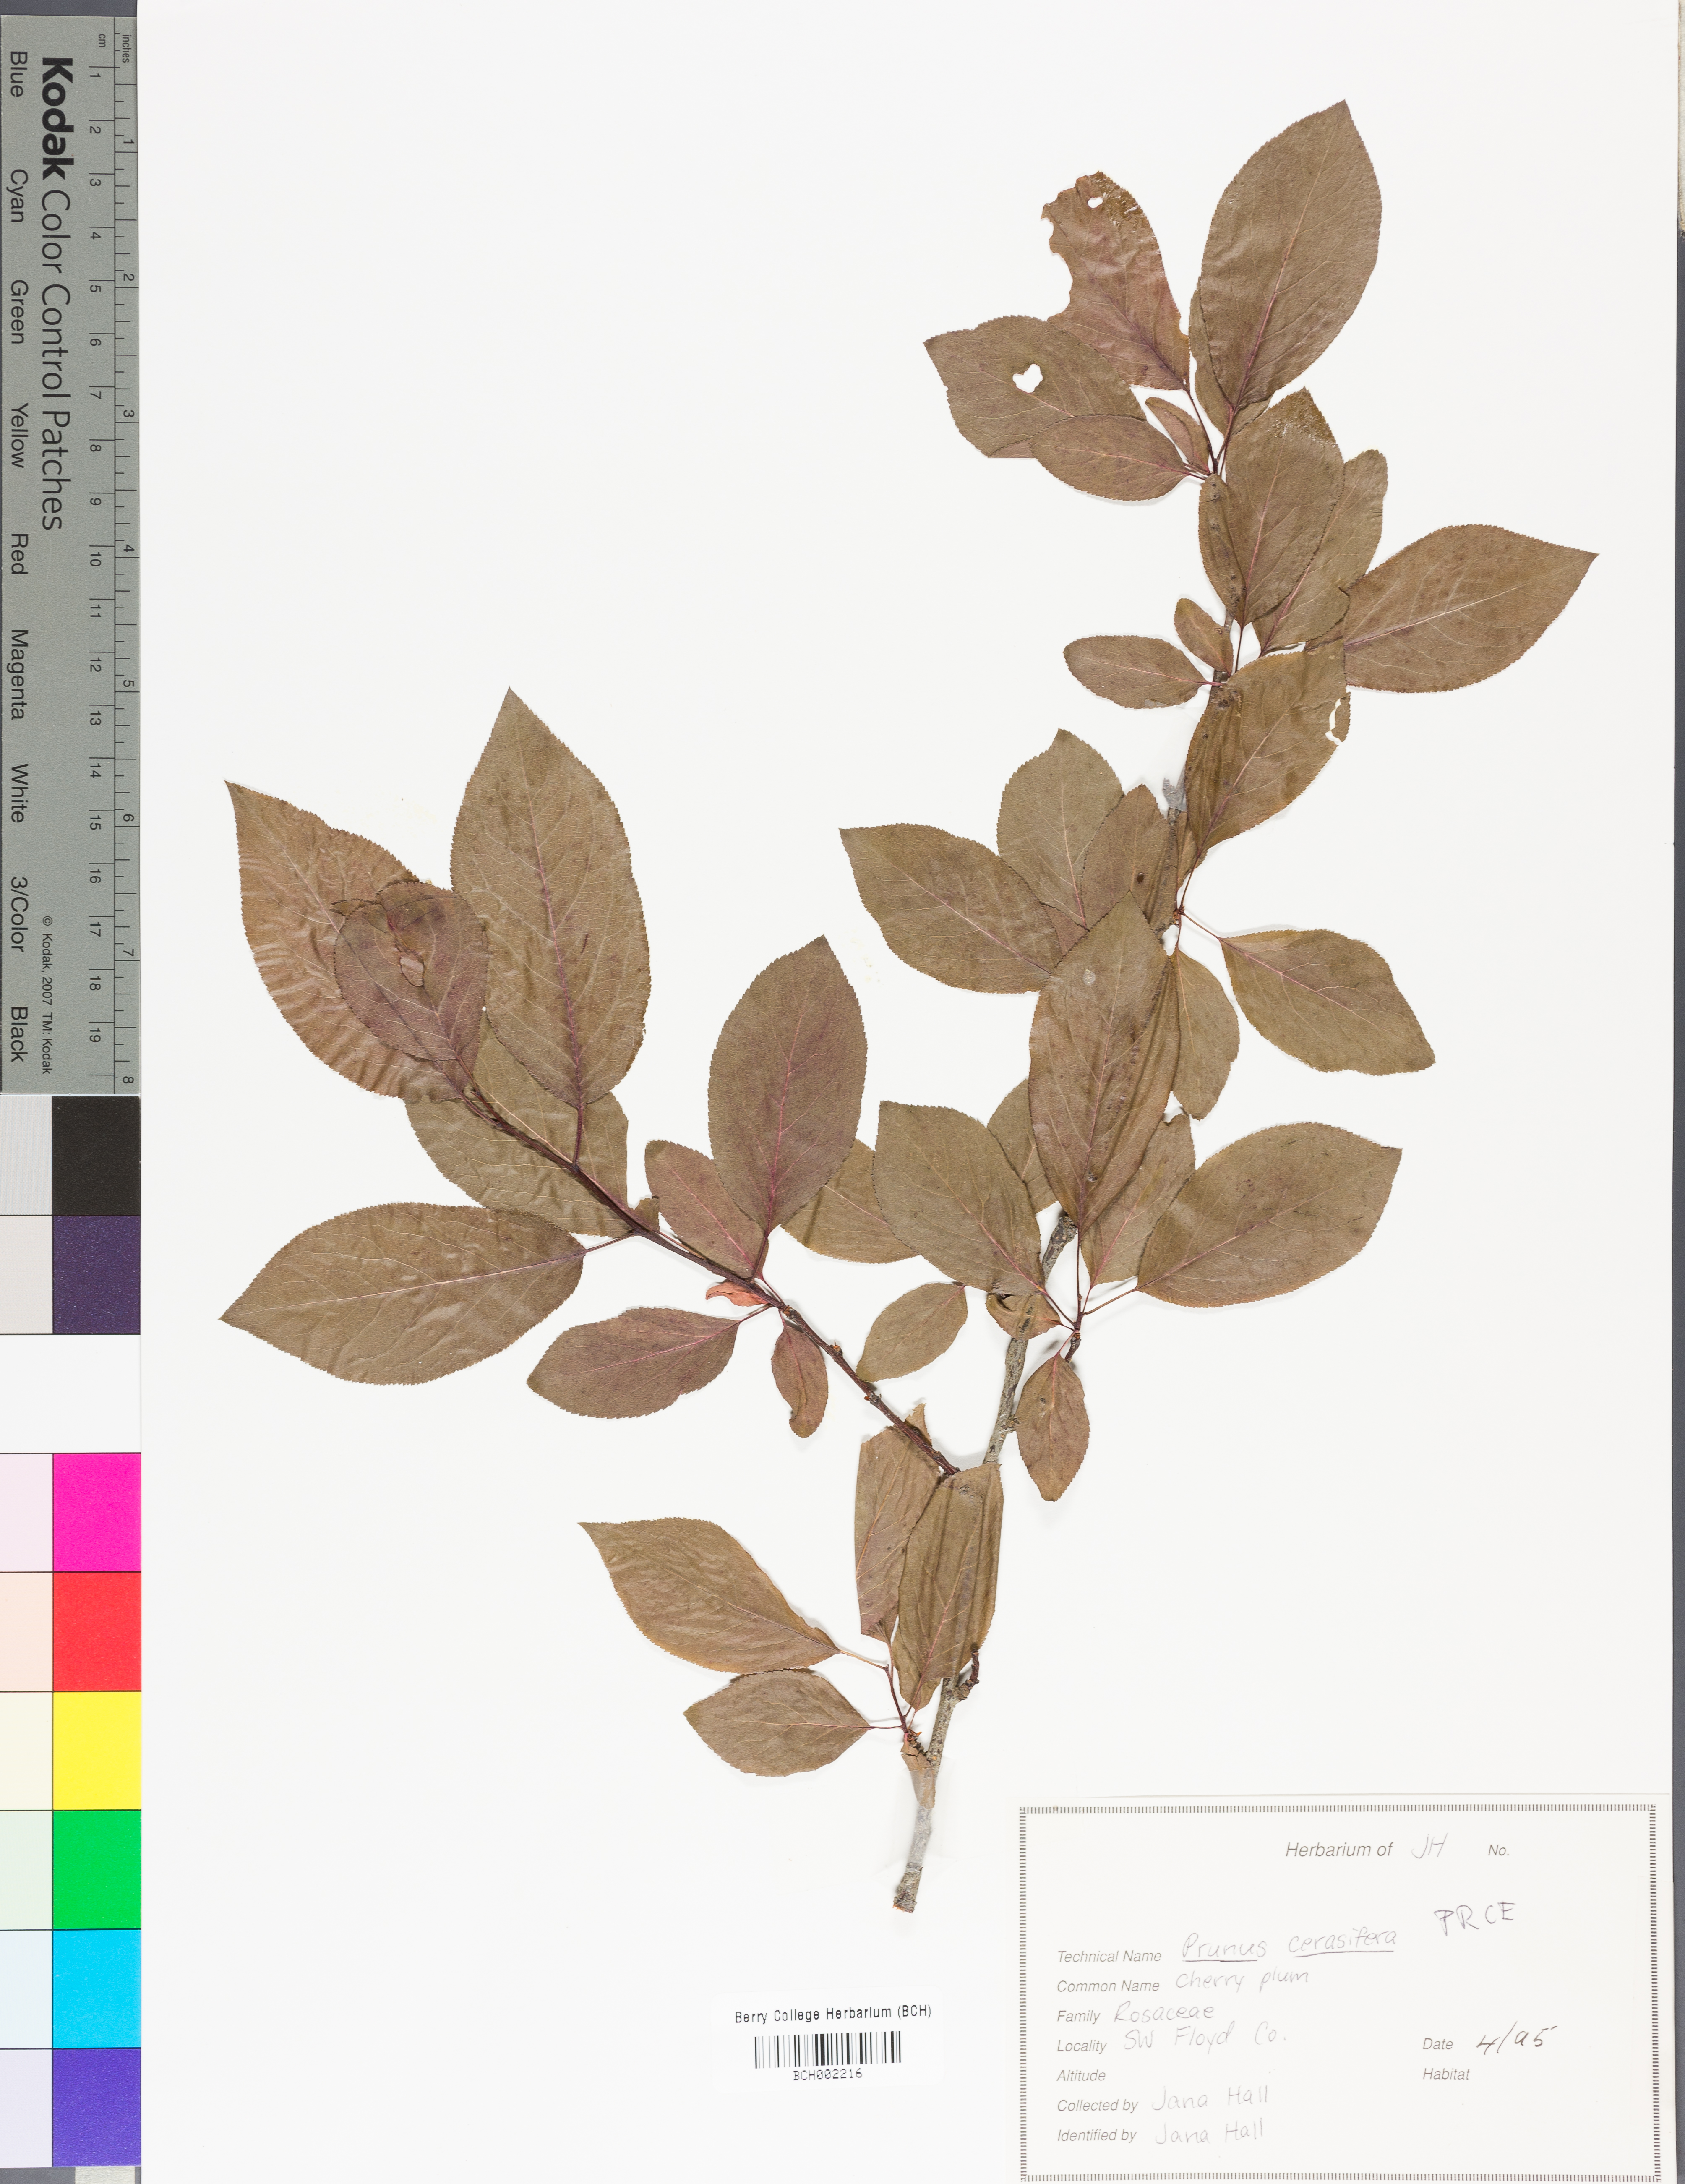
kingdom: Plantae
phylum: Tracheophyta
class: Magnoliopsida
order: Rosales
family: Rosaceae
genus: Prunus
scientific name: Prunus cerasus
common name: Morello cherry
